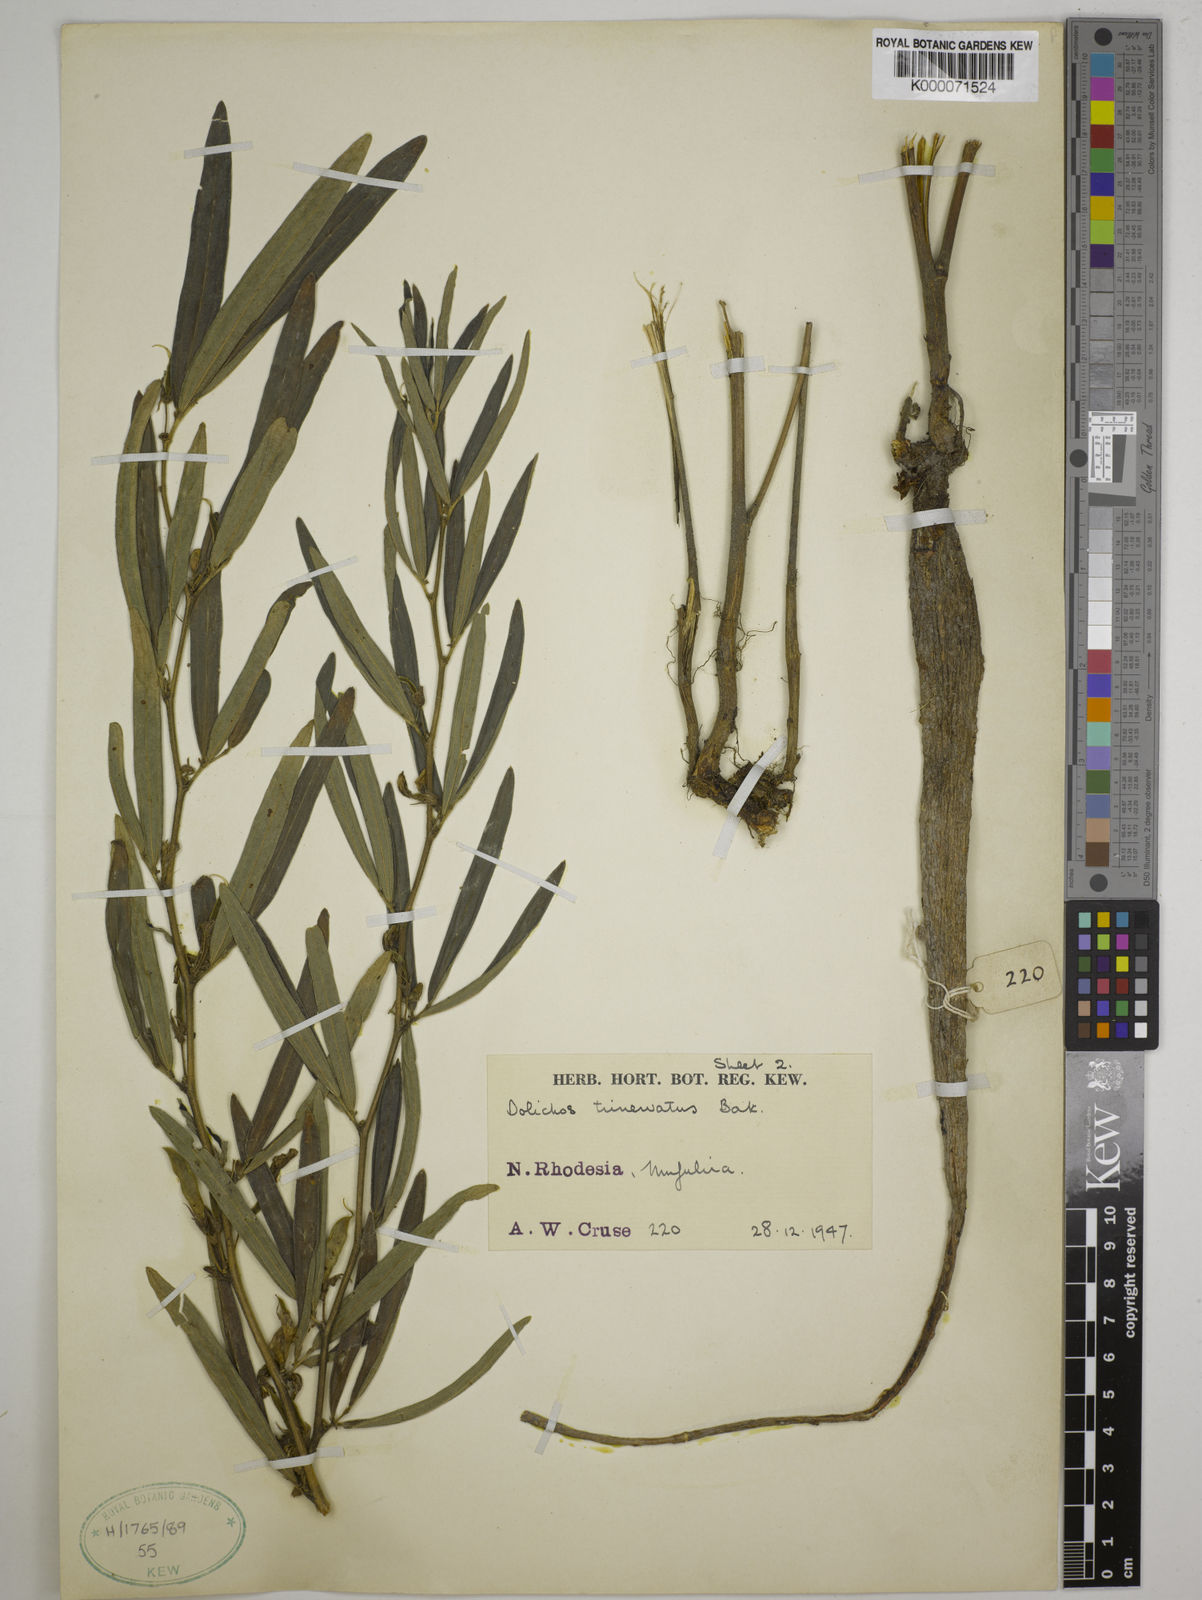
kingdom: Plantae
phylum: Tracheophyta
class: Magnoliopsida
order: Fabales
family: Fabaceae
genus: Dolichos
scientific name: Dolichos trinervatus
